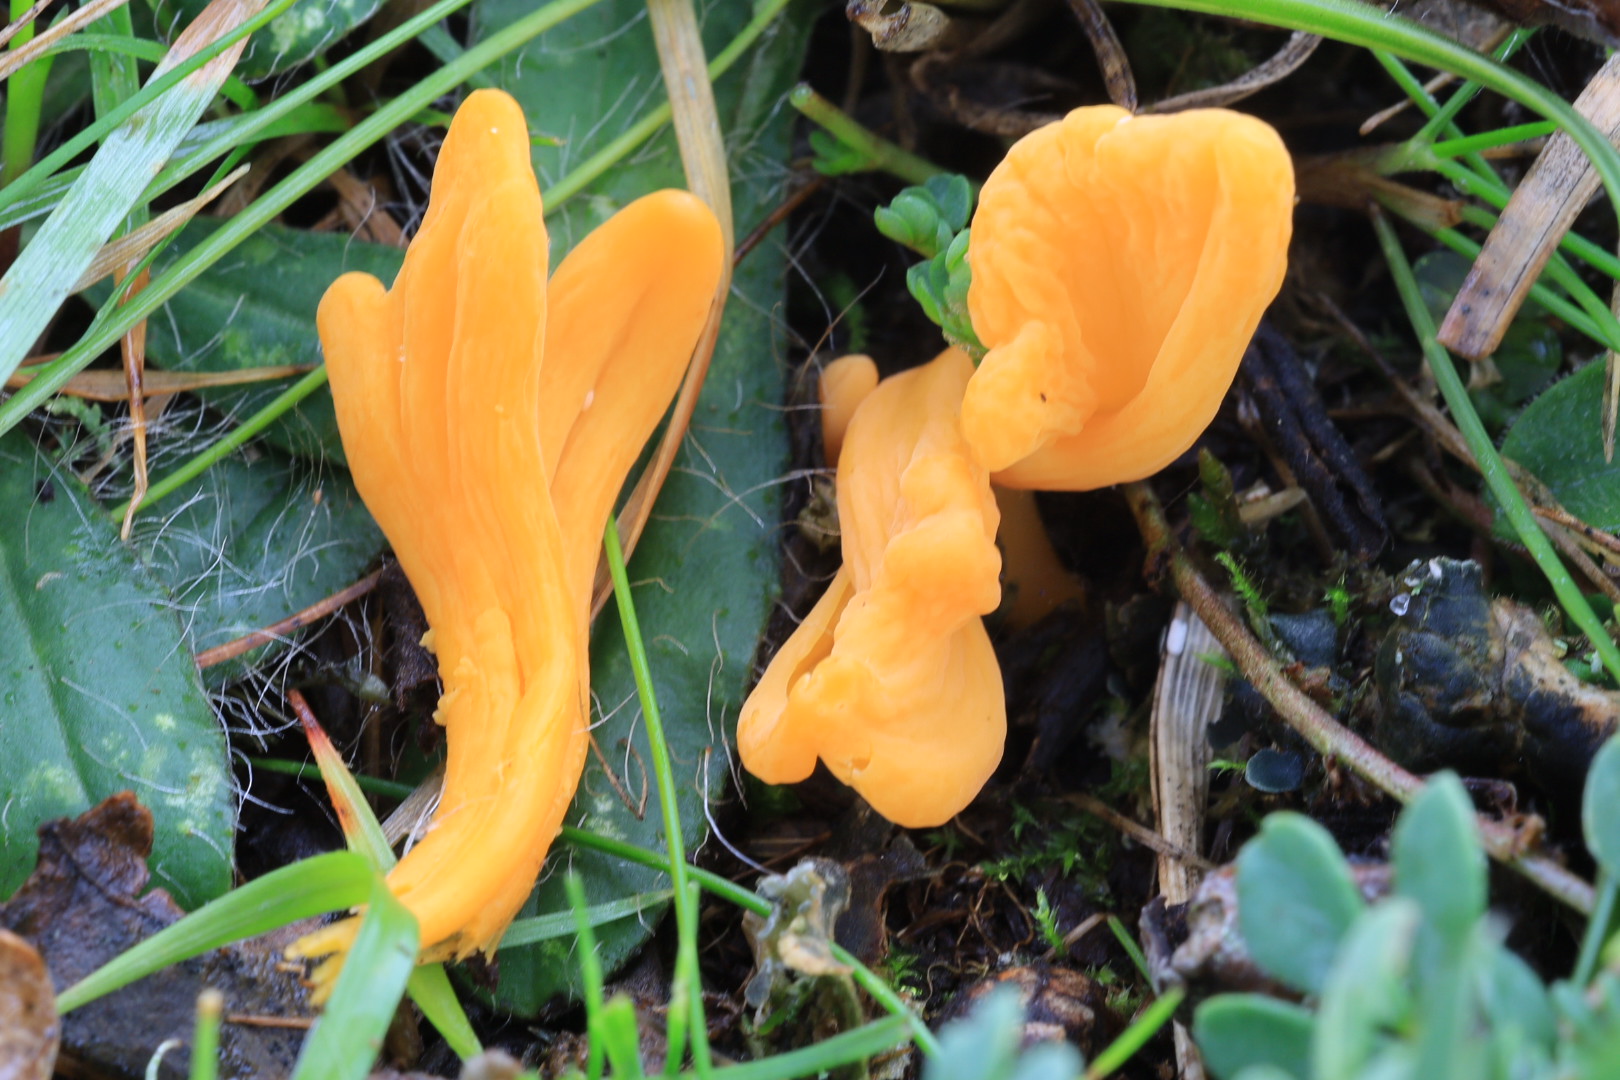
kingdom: Fungi
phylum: Basidiomycota
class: Agaricomycetes
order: Agaricales
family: Clavariaceae
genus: Clavulinopsis
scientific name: Clavulinopsis
